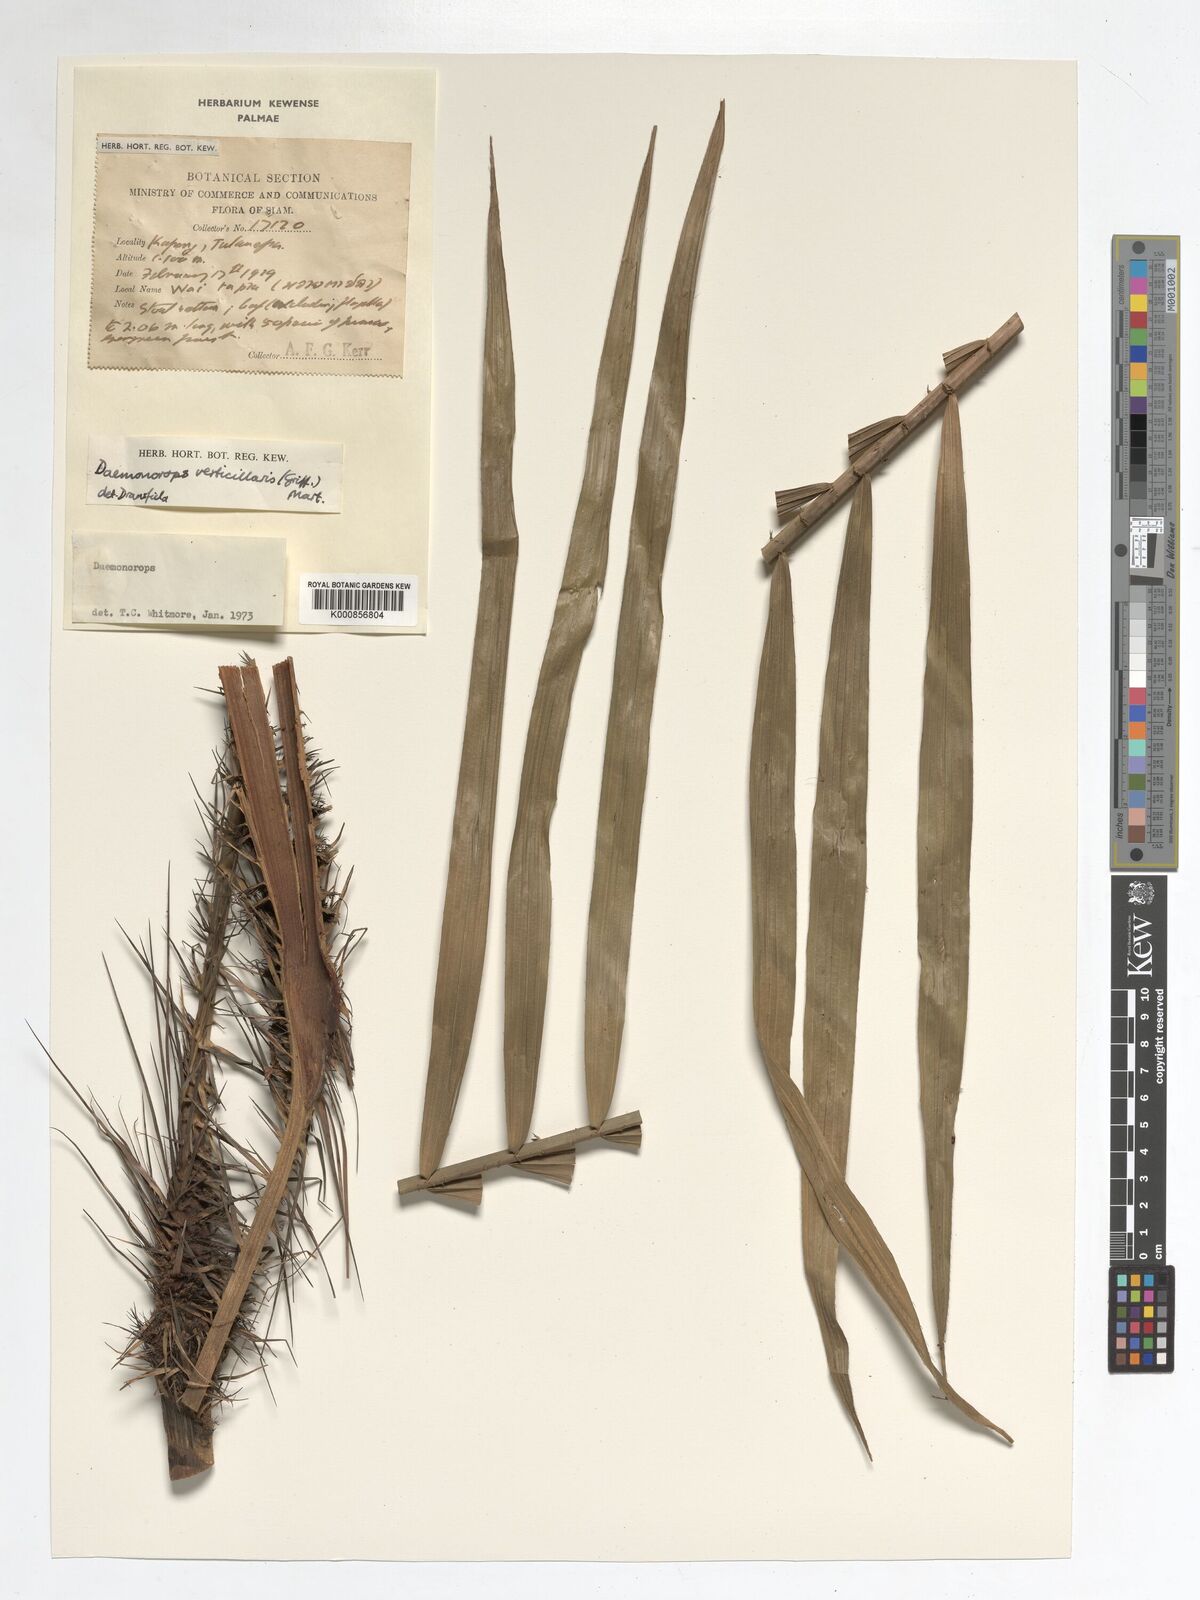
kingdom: Plantae
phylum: Tracheophyta
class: Liliopsida
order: Arecales
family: Arecaceae
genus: Calamus
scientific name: Calamus verticillaris
